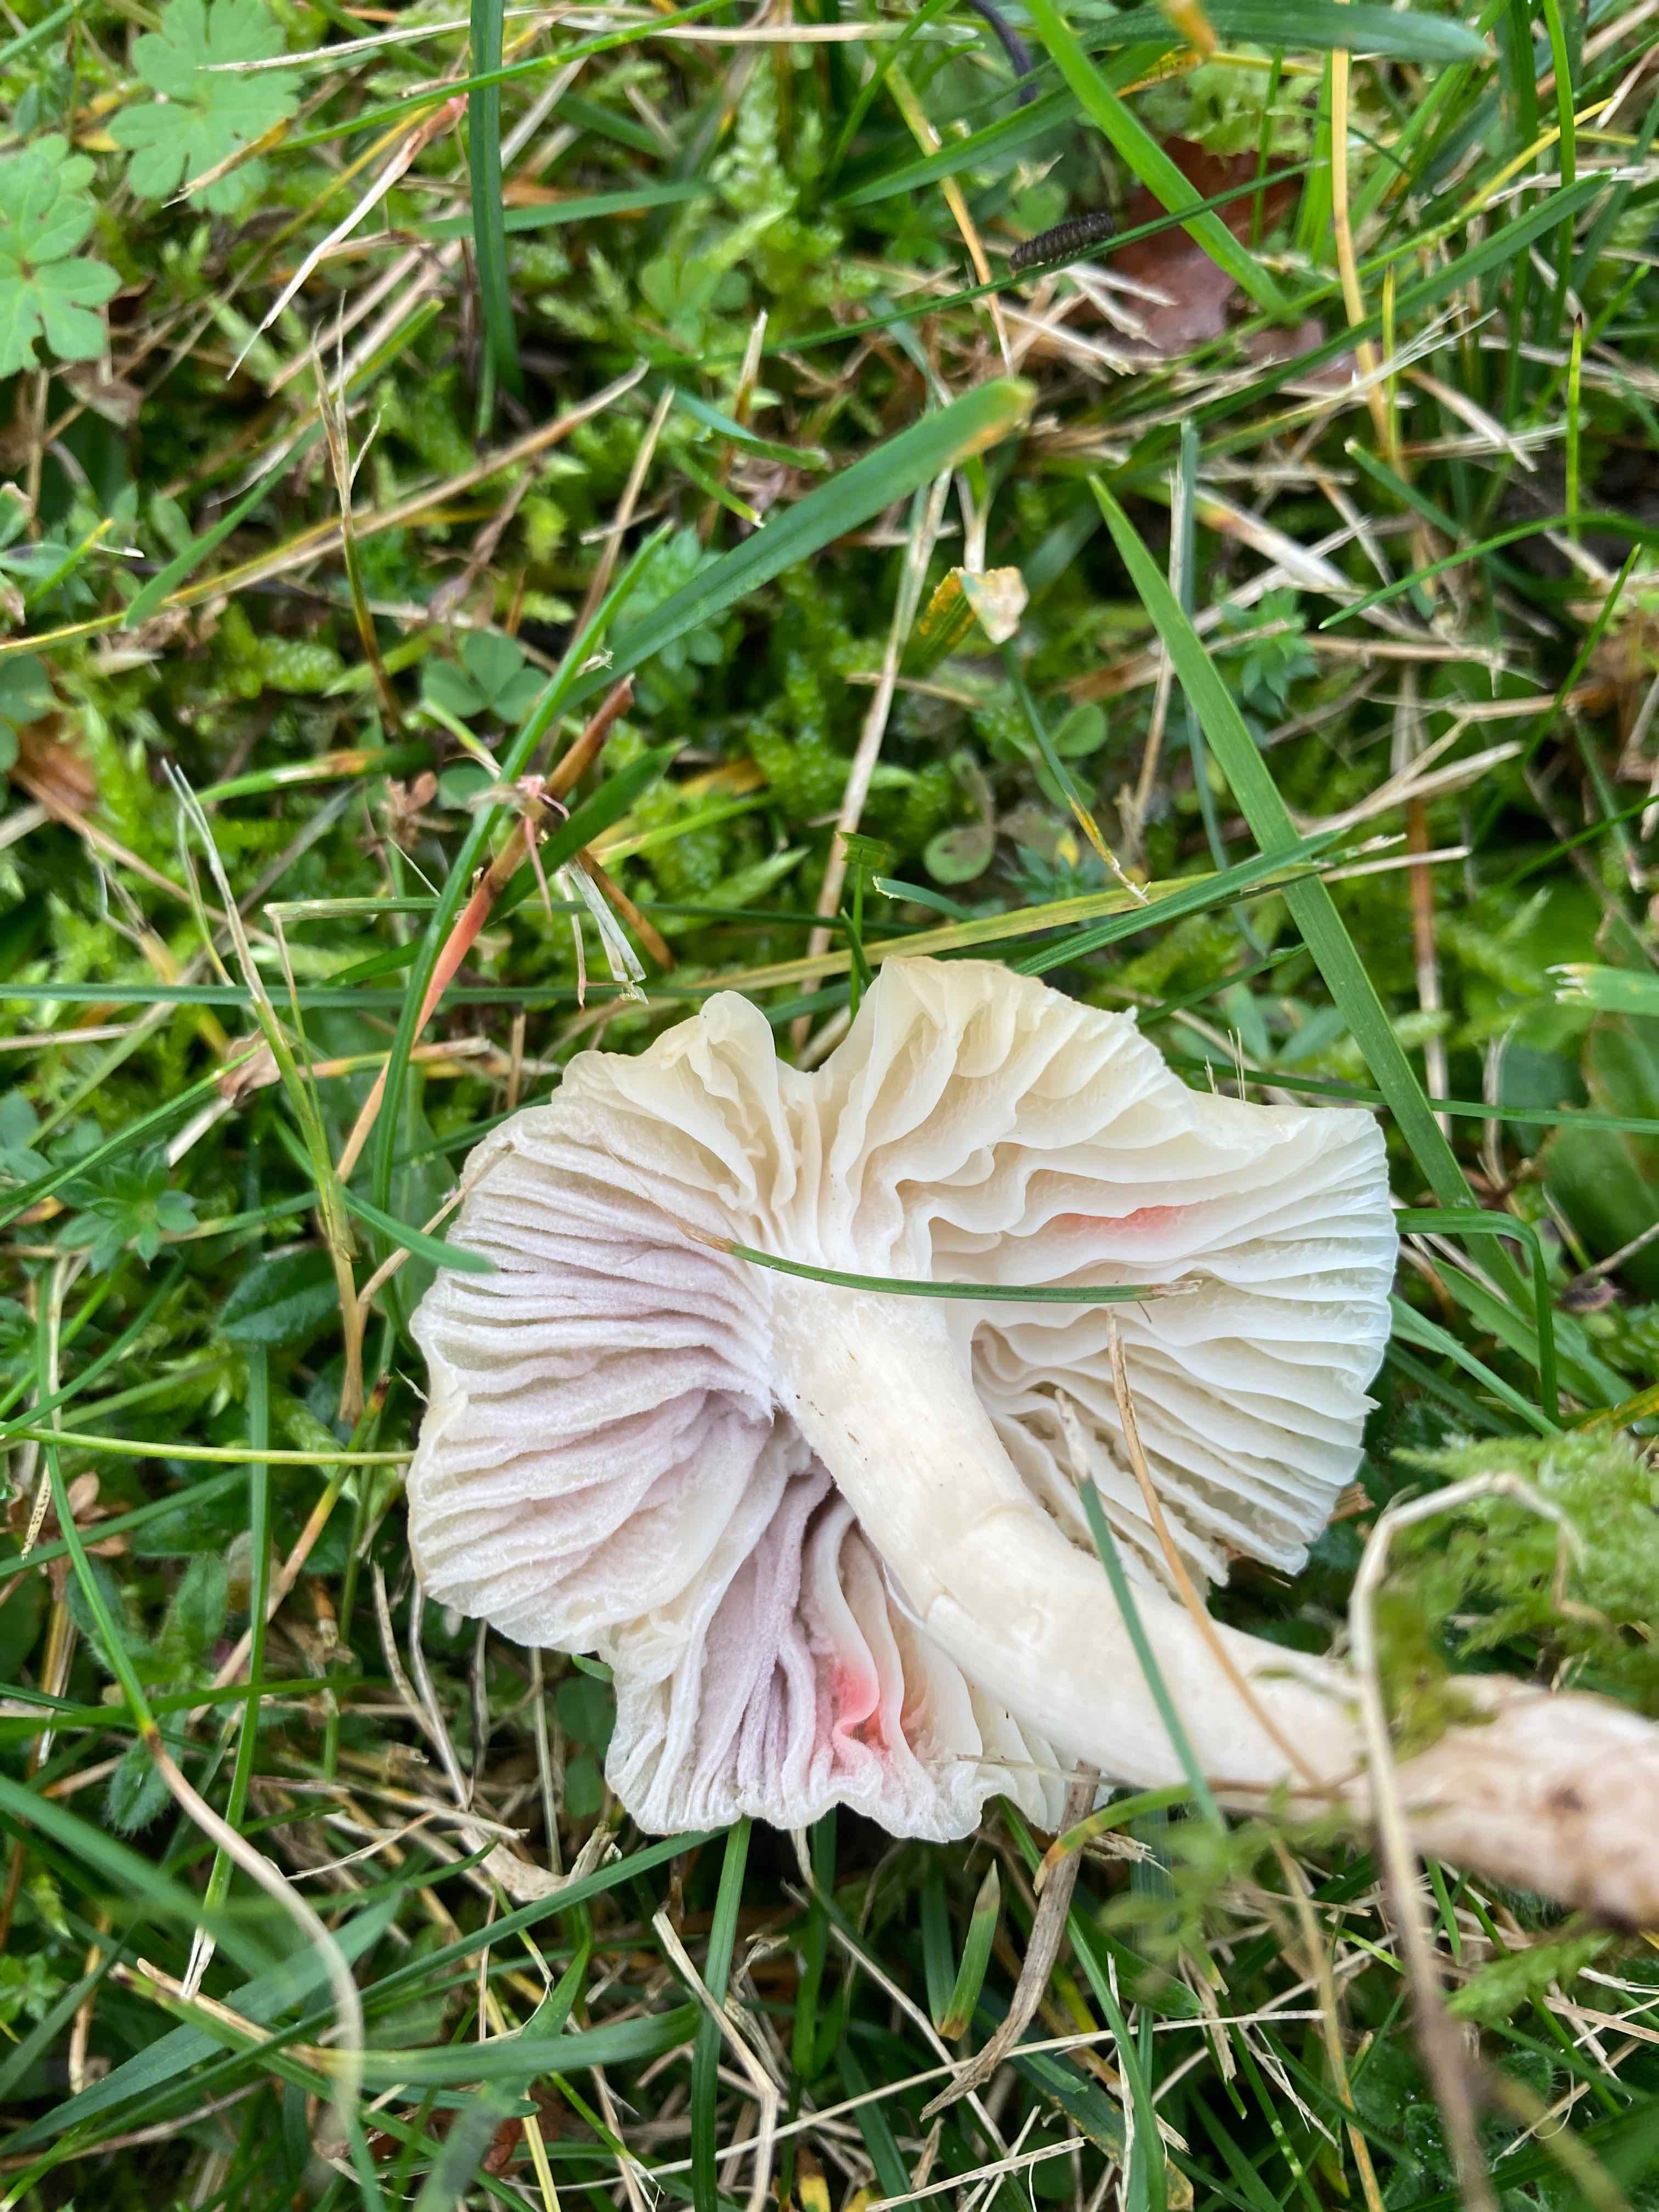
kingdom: Fungi
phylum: Ascomycota
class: Sordariomycetes
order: Hypocreales
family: Clavicipitaceae
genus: Marquandomyces
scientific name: Marquandomyces marquandii
